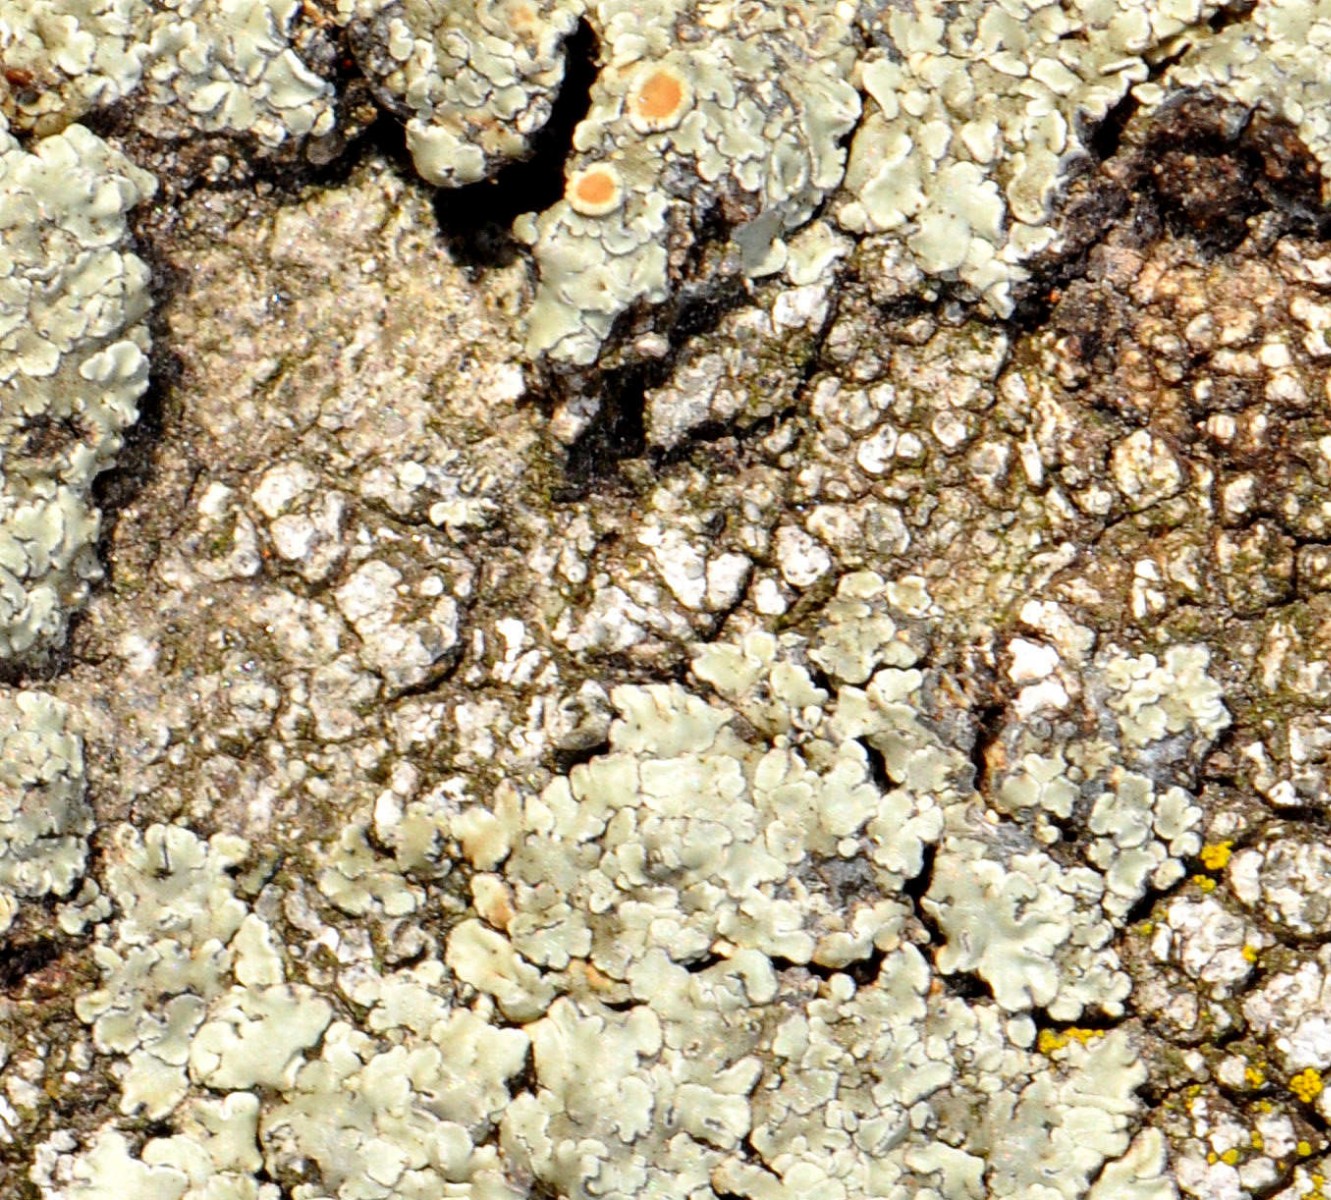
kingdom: Fungi
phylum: Ascomycota
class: Lecanoromycetes
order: Lecanorales
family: Lecanoraceae
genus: Protoparmeliopsis
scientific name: Protoparmeliopsis muralis
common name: randfliget kantskivelav
